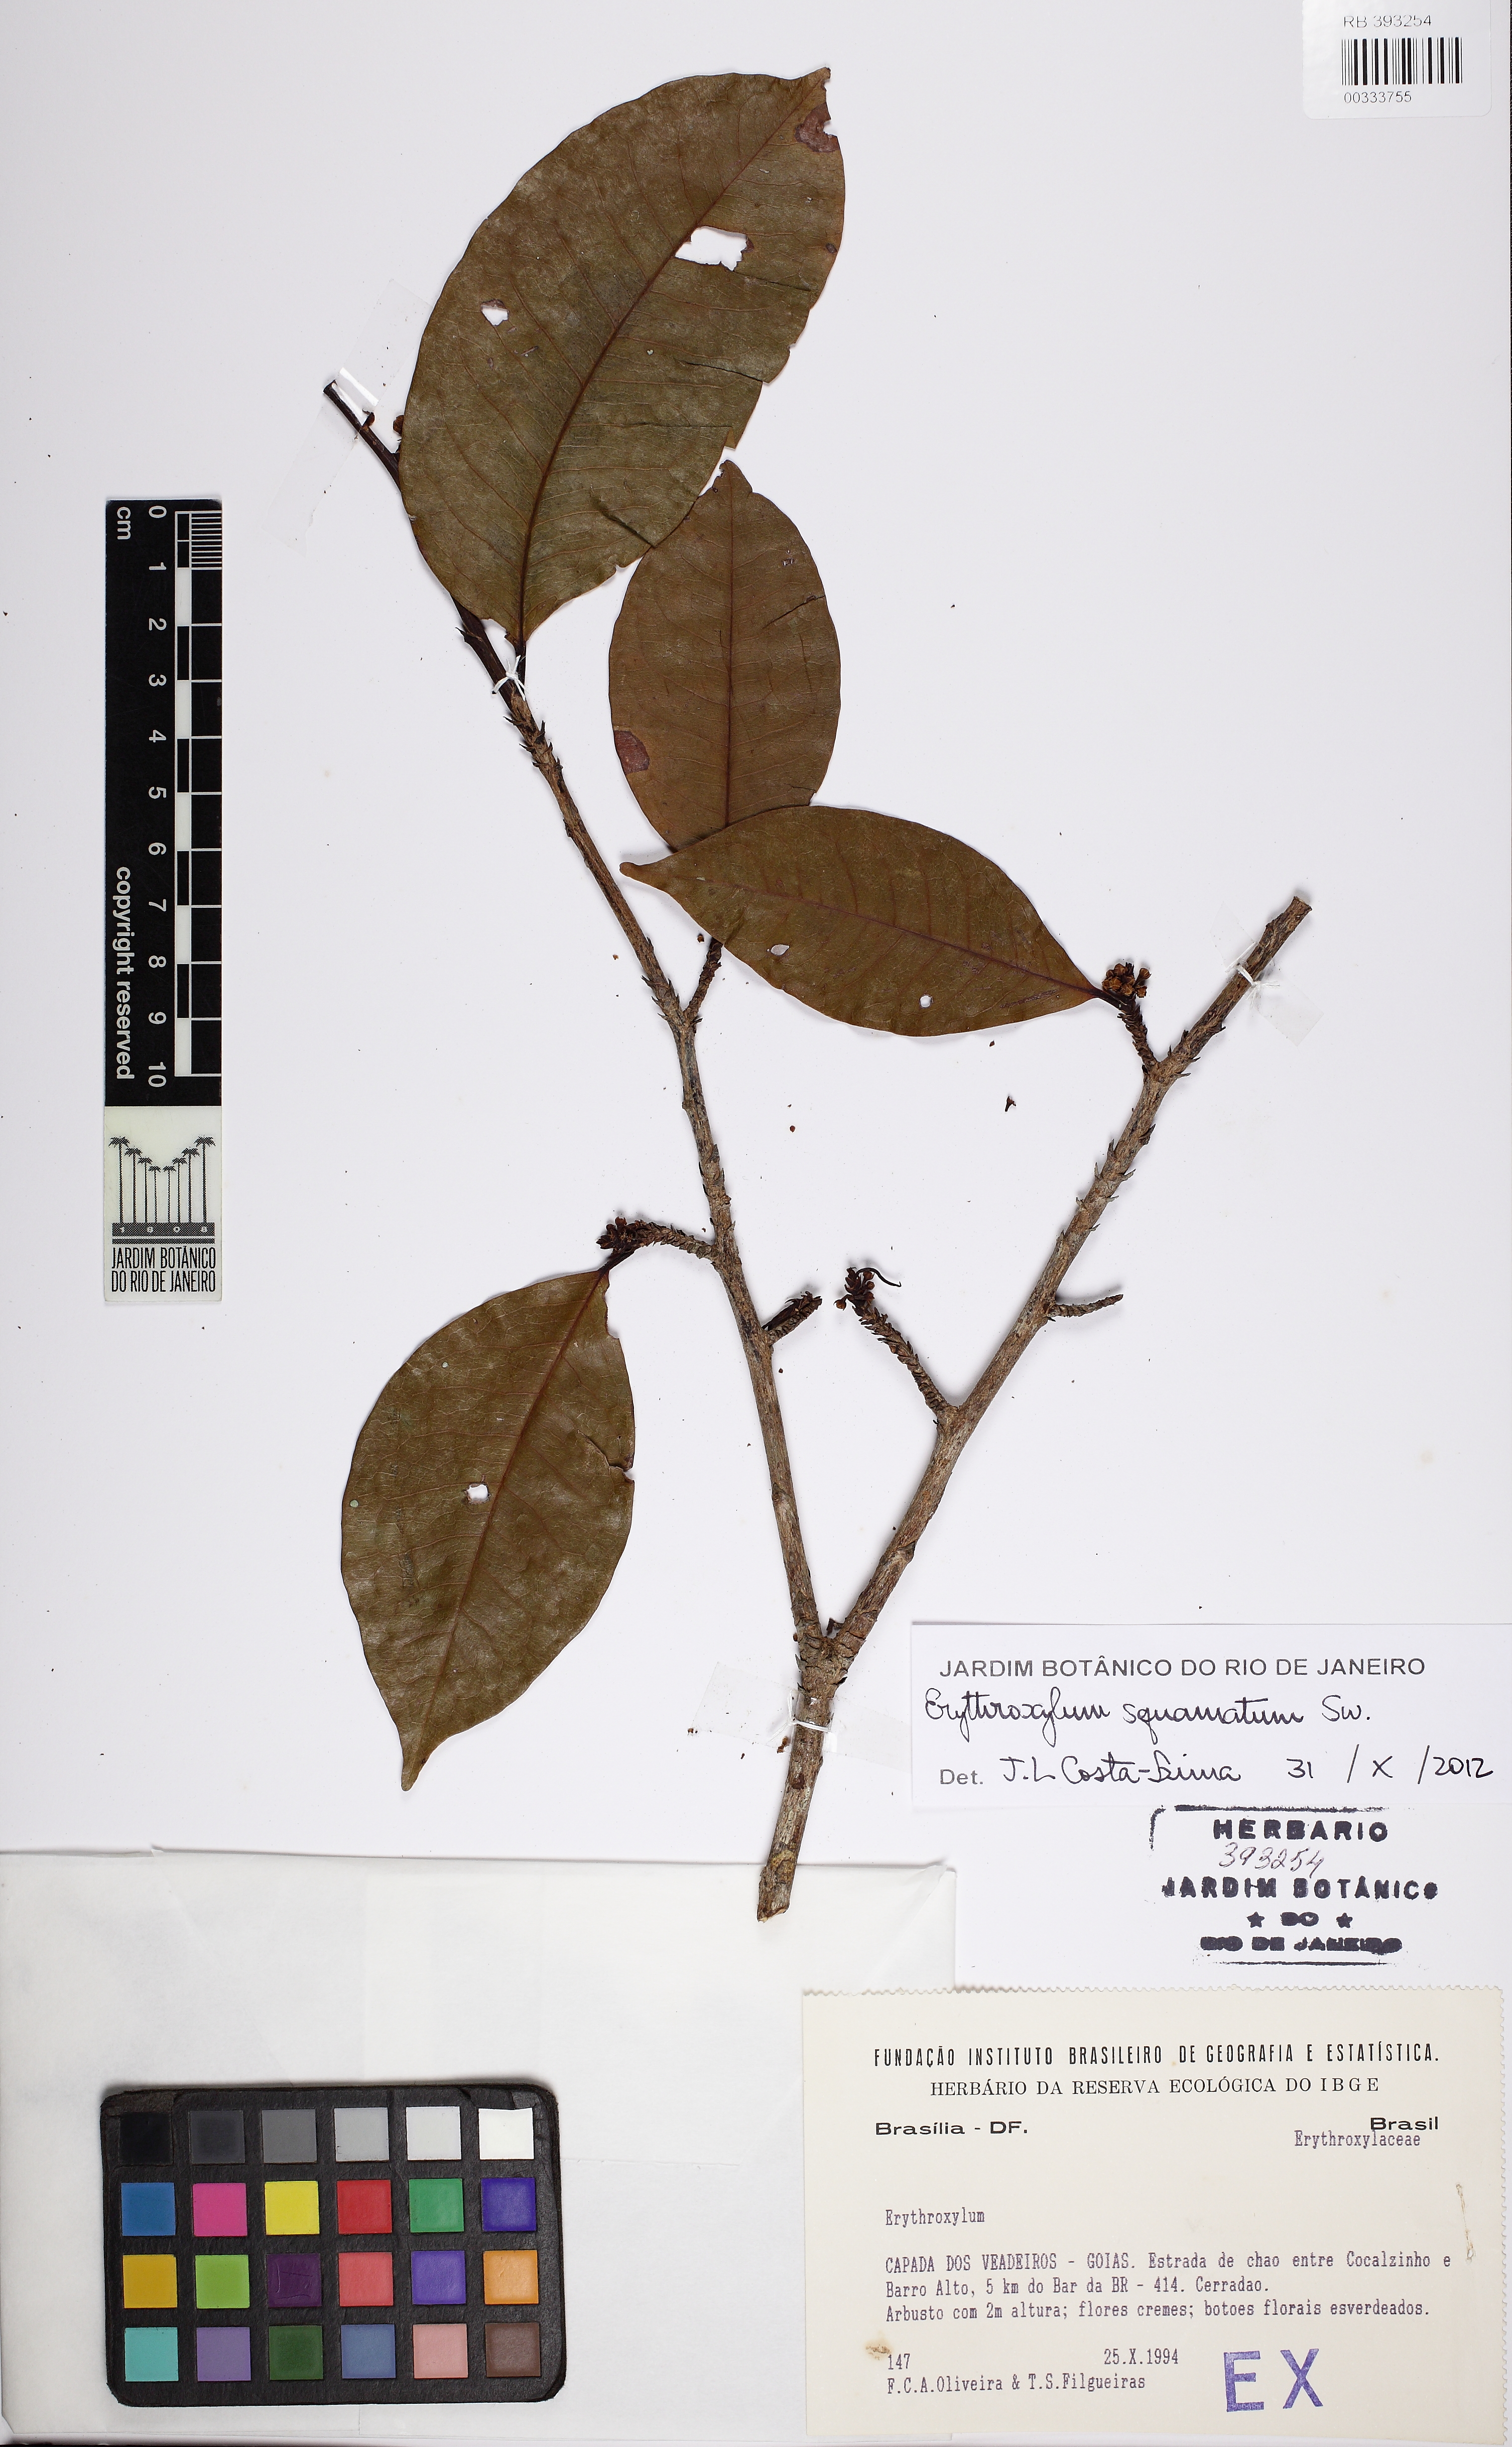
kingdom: Plantae
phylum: Tracheophyta
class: Magnoliopsida
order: Malpighiales
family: Erythroxylaceae
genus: Erythroxylum
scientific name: Erythroxylum squamatum
